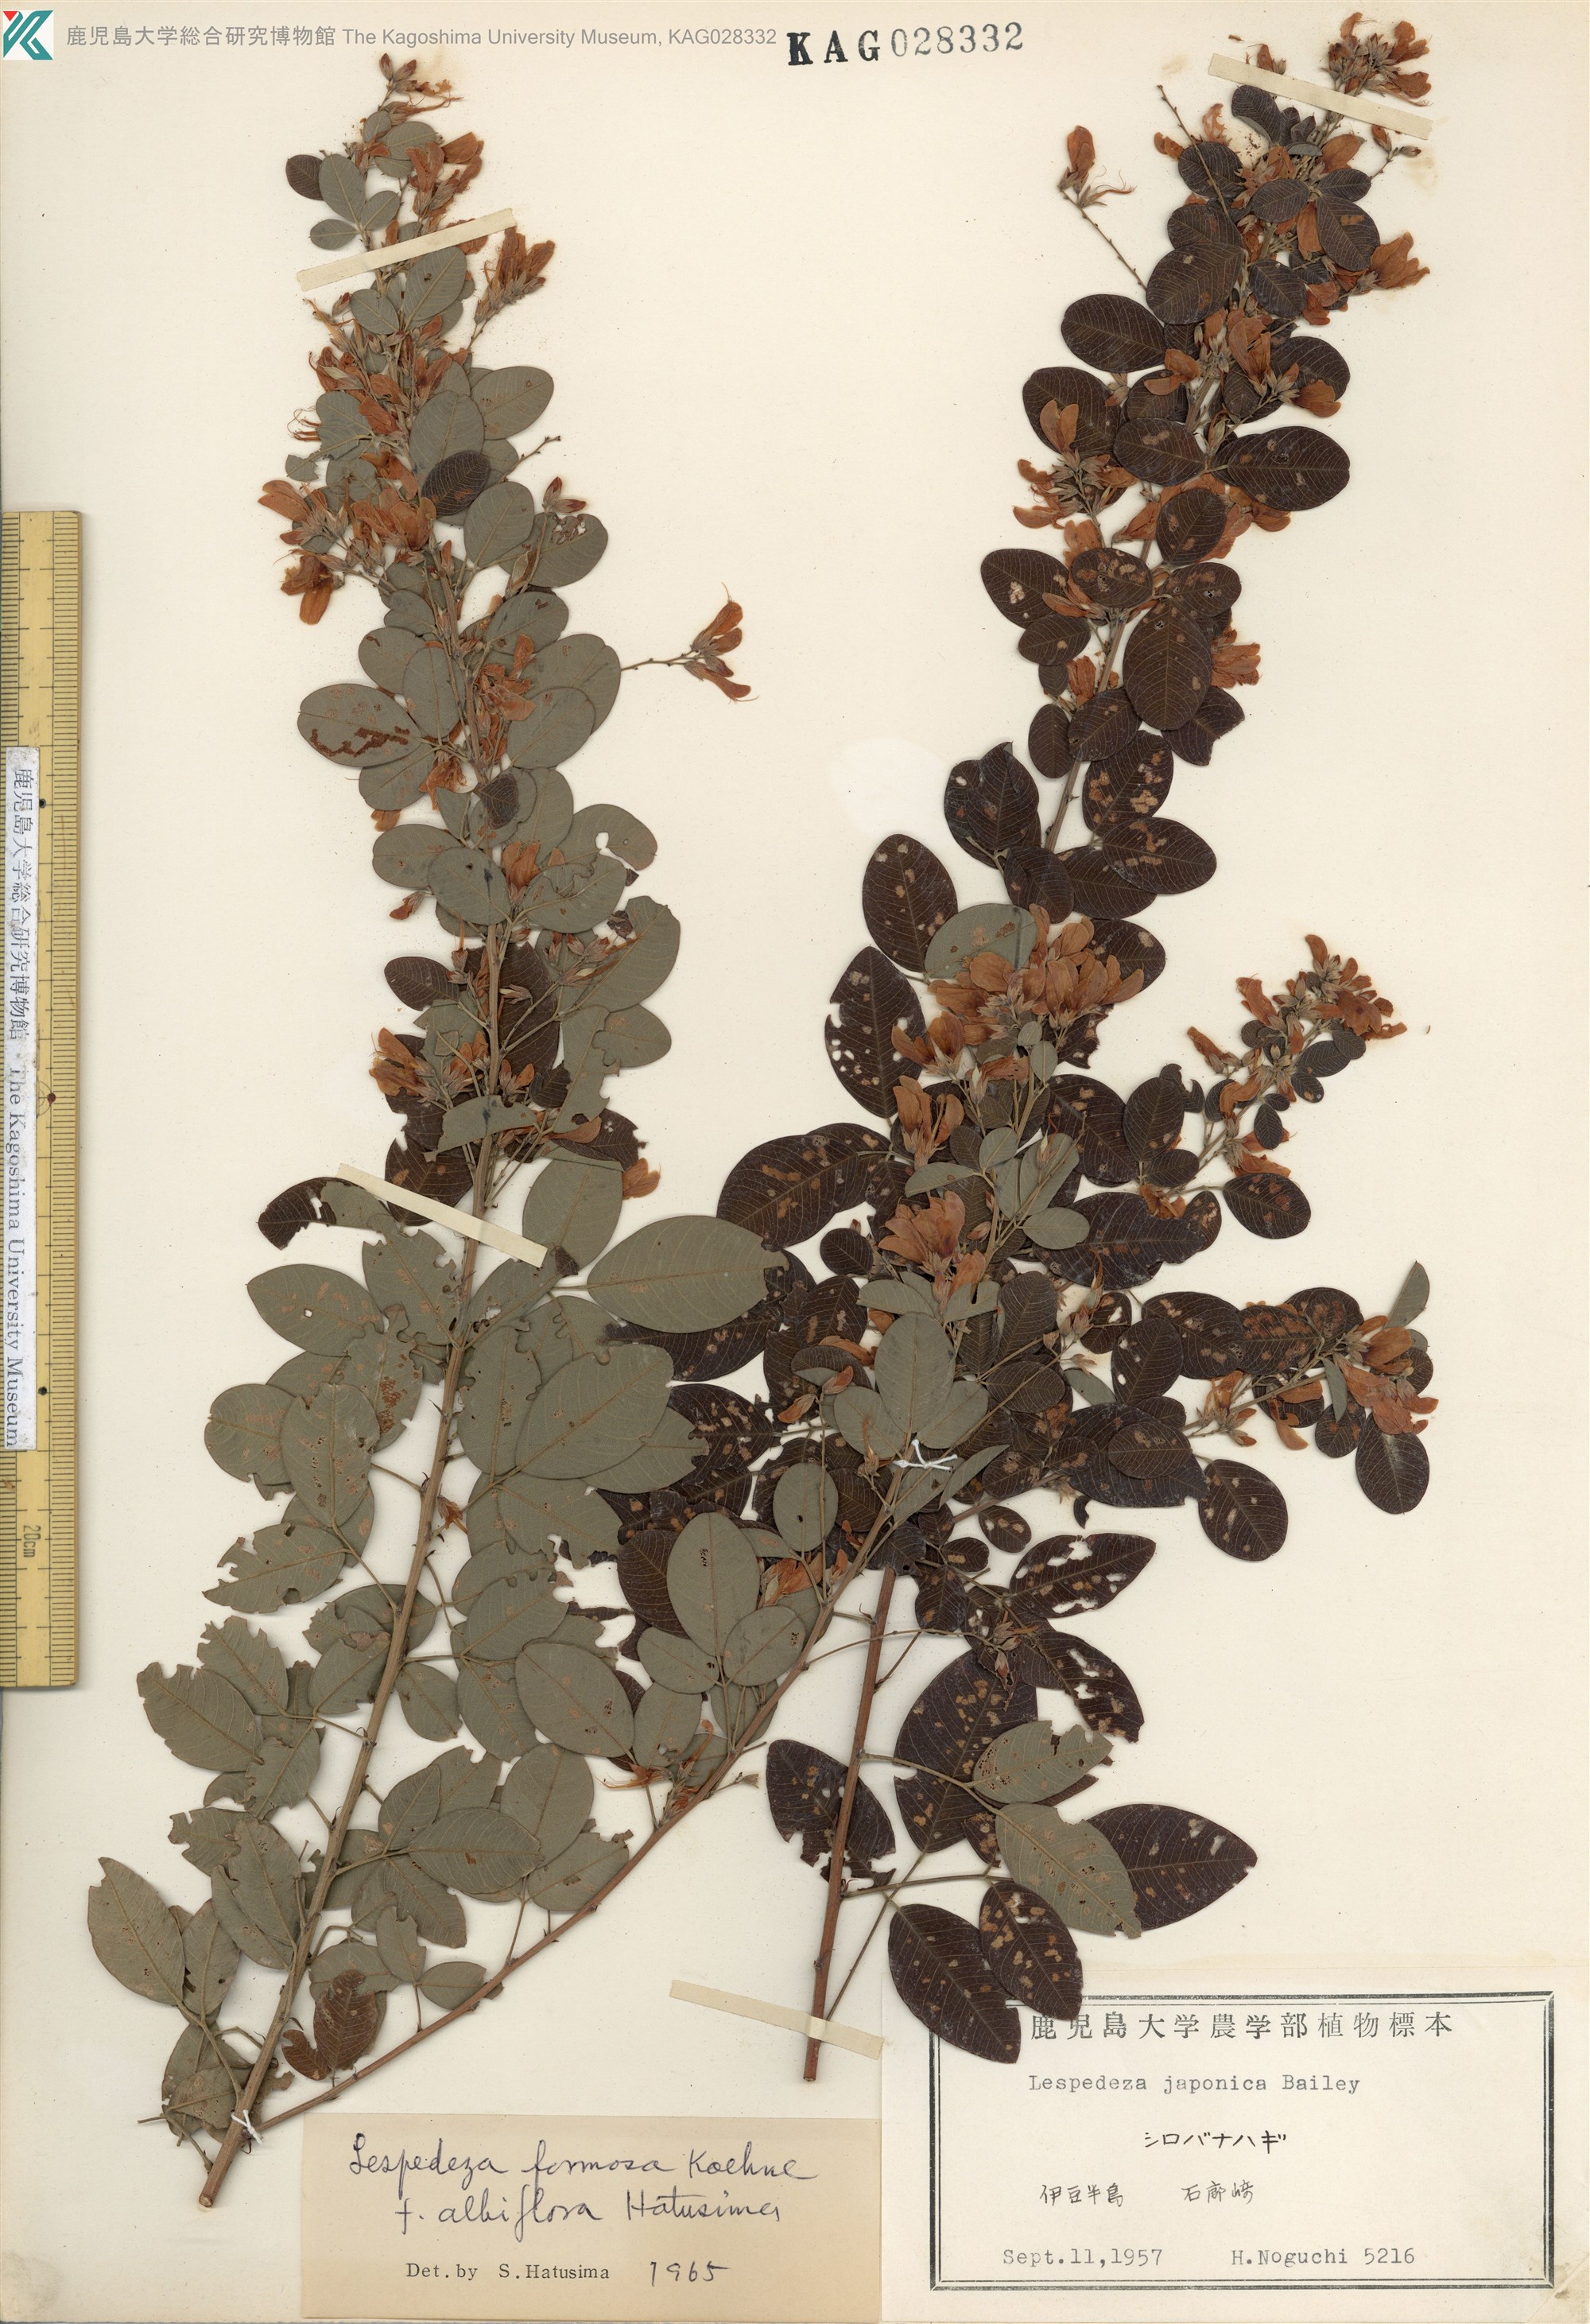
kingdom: Plantae
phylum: Tracheophyta
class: Magnoliopsida
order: Fabales
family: Fabaceae
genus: Lespedeza
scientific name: Lespedeza thunbergii
